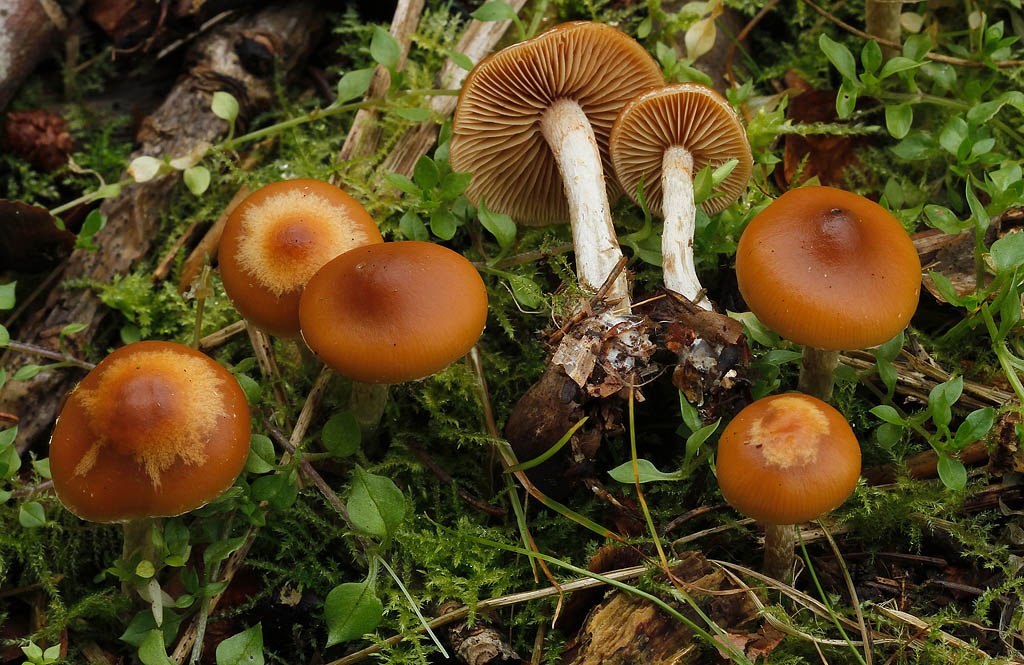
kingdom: Fungi
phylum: Basidiomycota
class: Agaricomycetes
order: Agaricales
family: Hymenogastraceae
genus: Galerina
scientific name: Galerina sideroides
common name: træflis-hjelmhat
